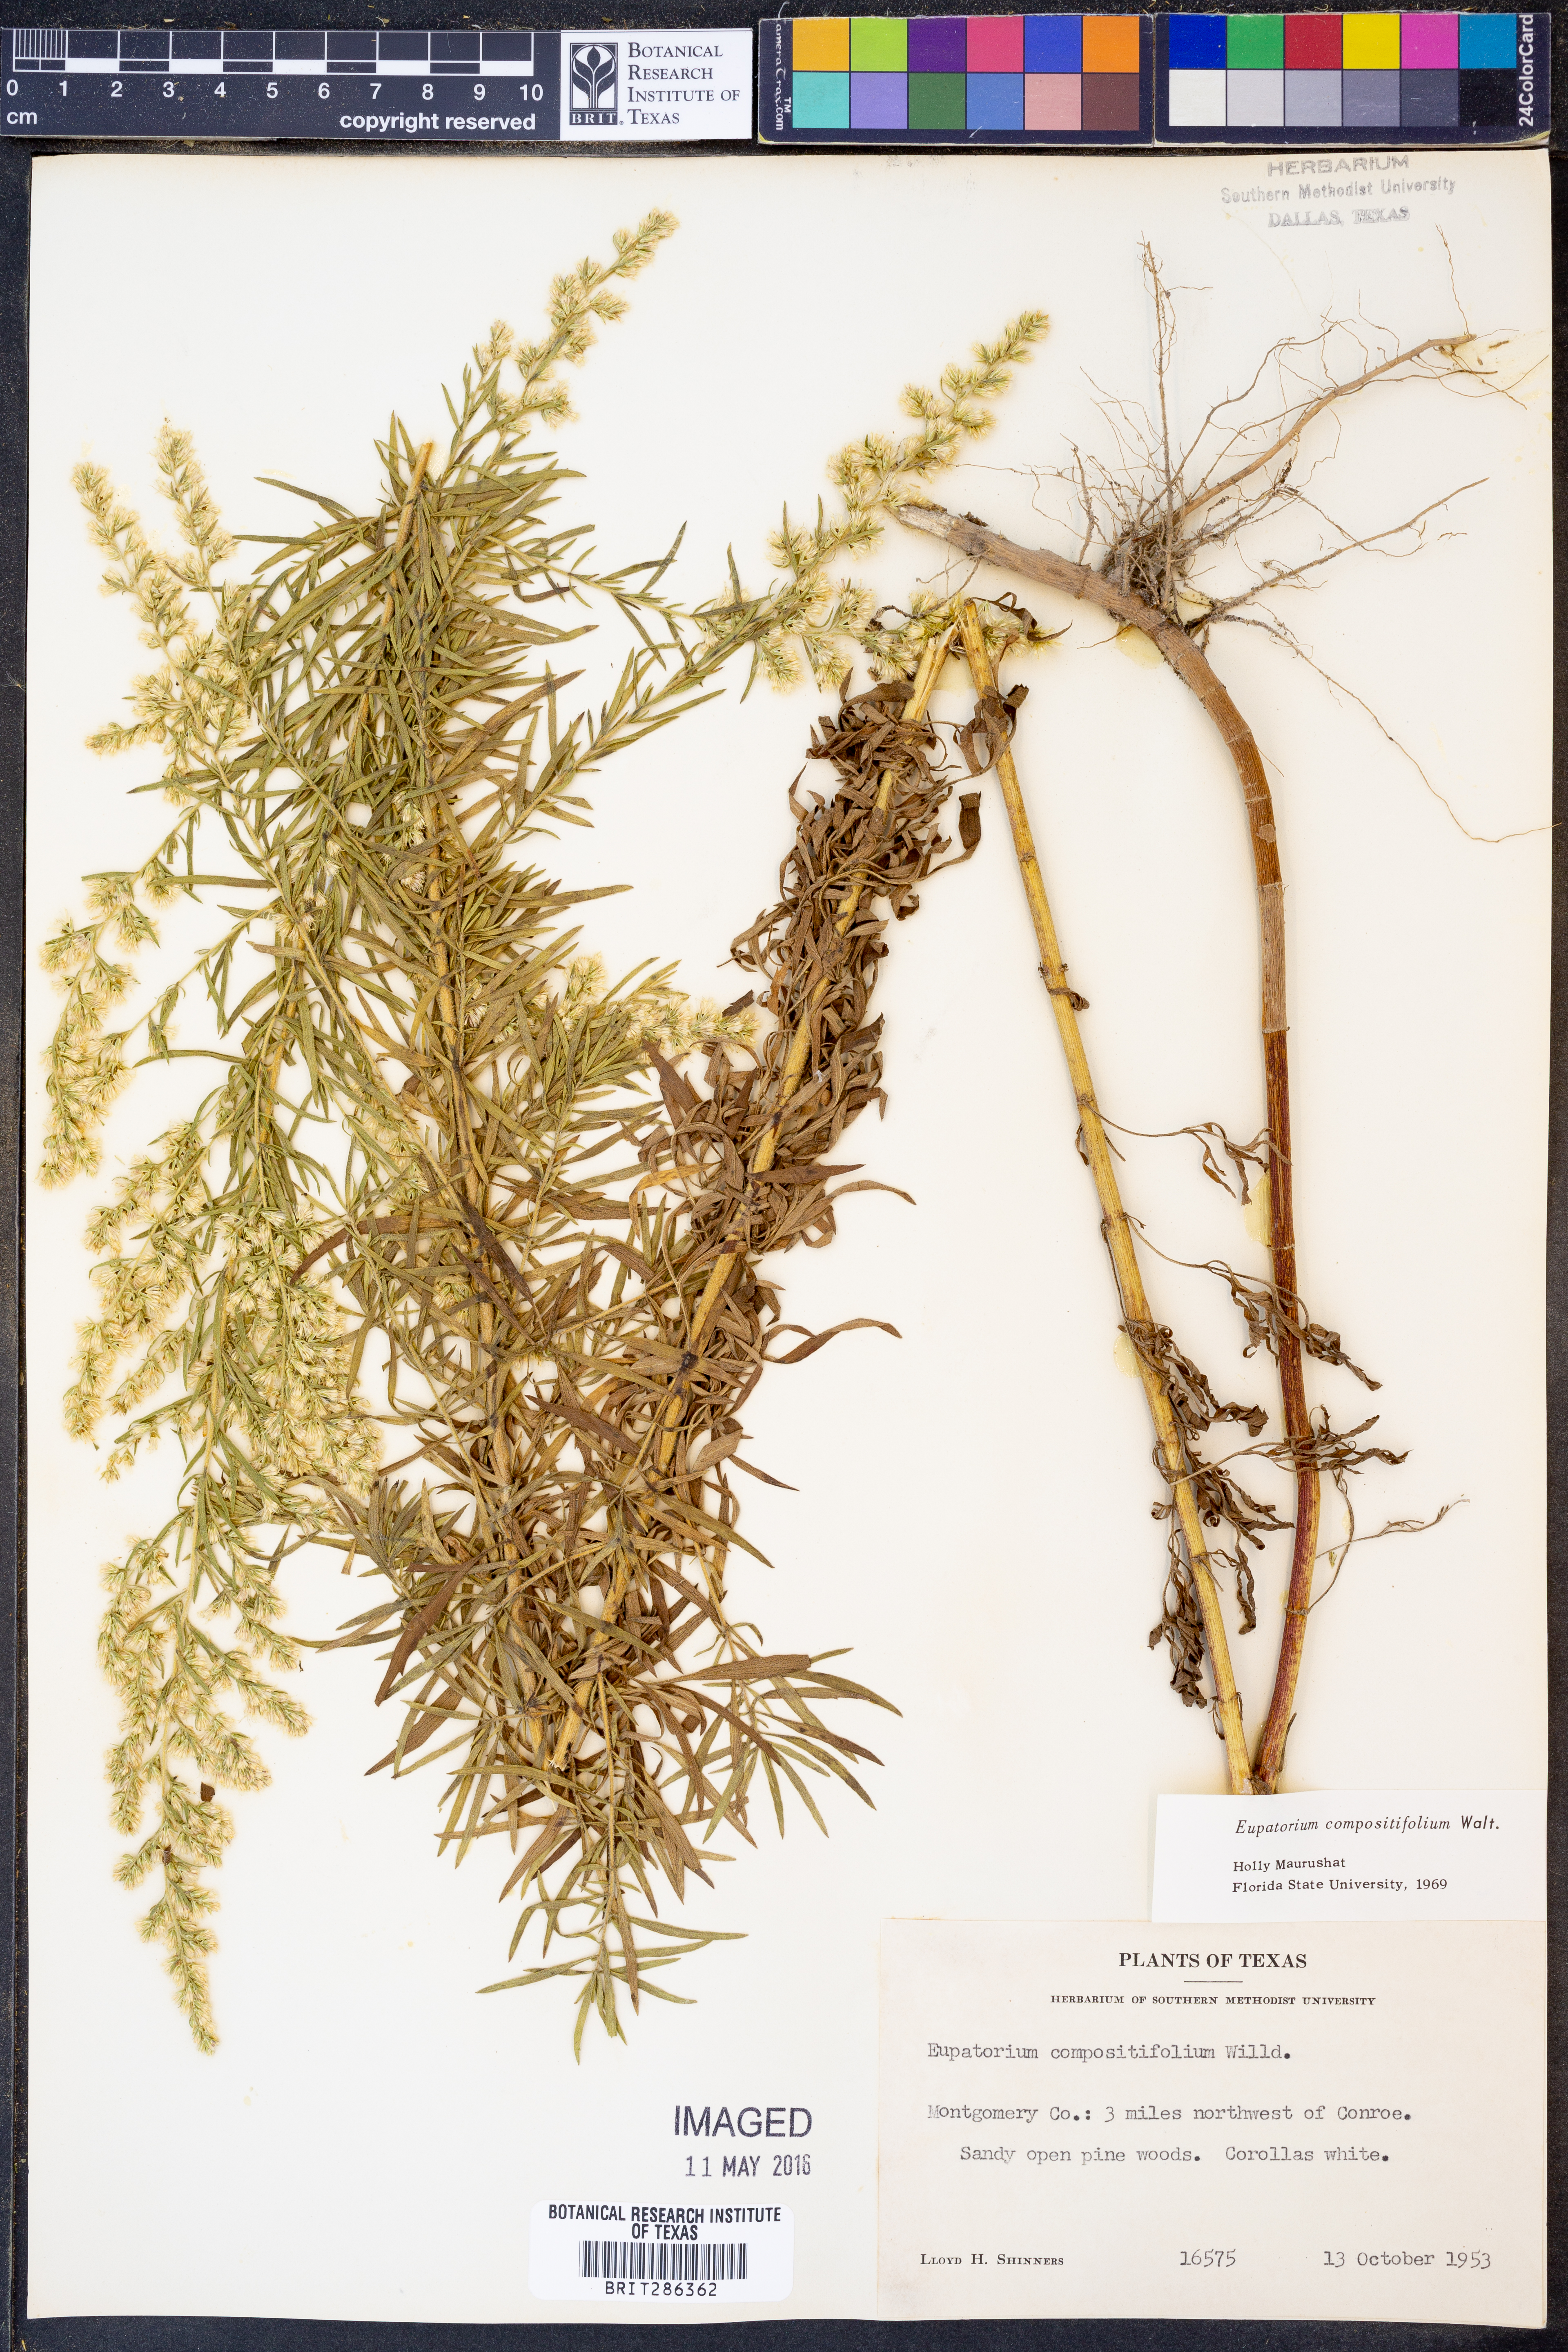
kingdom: Plantae
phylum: Tracheophyta
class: Magnoliopsida
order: Asterales
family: Asteraceae
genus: Eupatorium
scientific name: Eupatorium compositifolium
